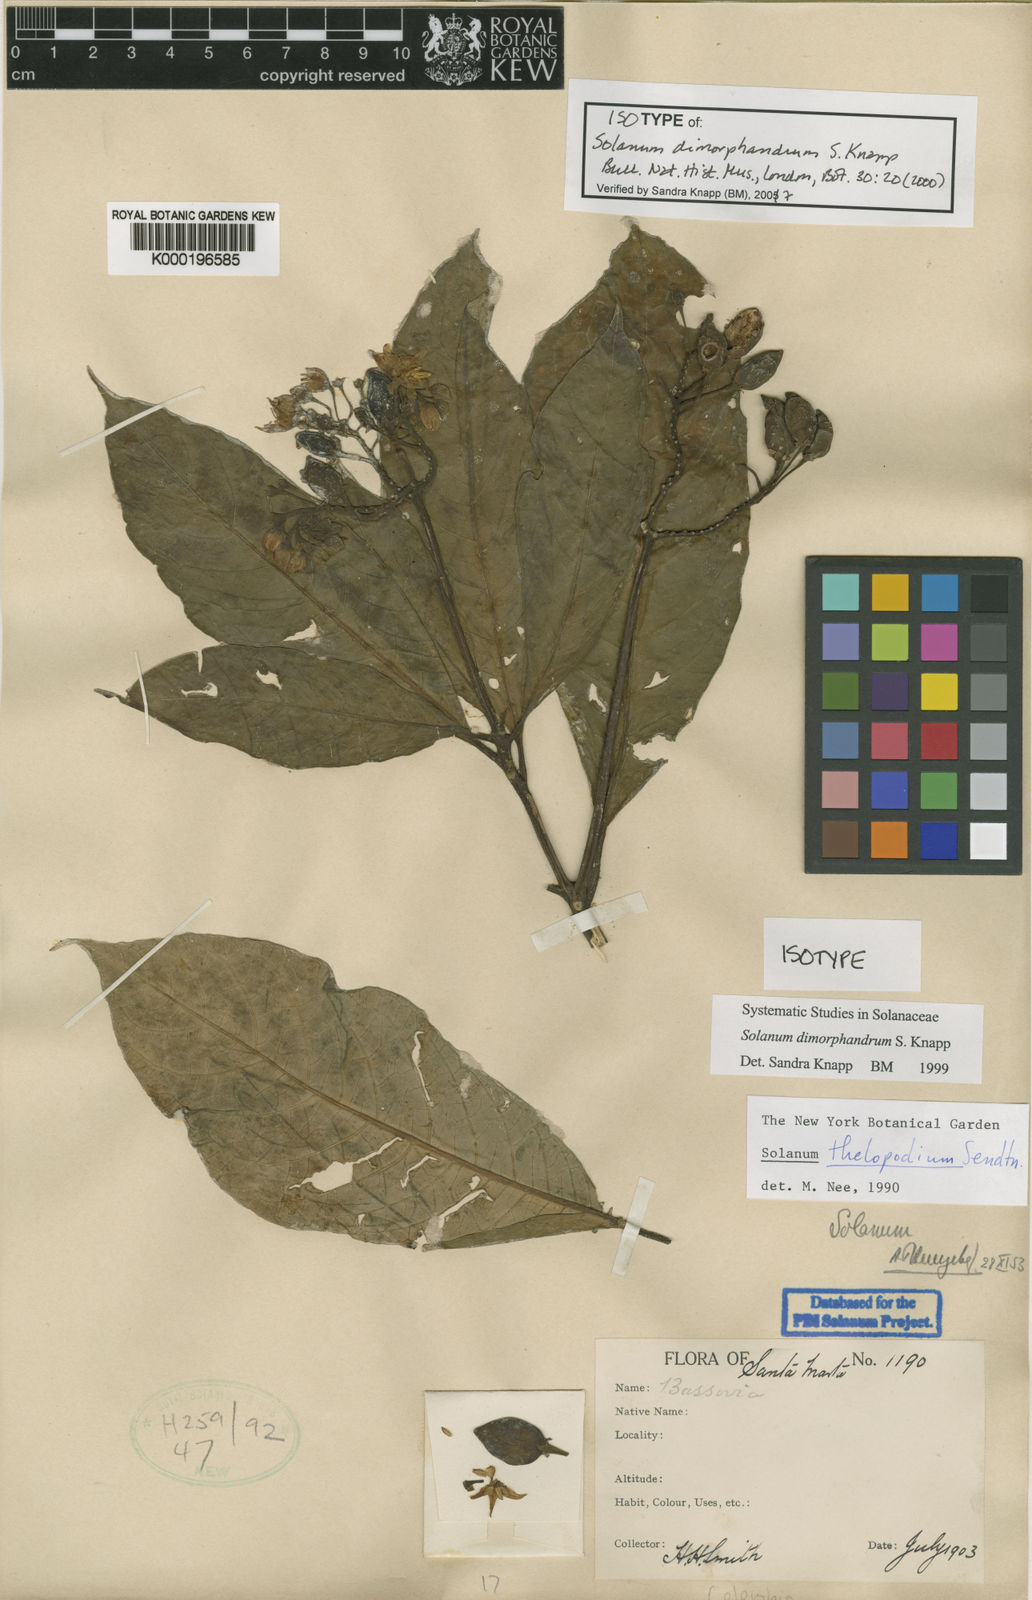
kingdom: Plantae
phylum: Tracheophyta
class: Magnoliopsida
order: Solanales
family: Solanaceae
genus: Solanum
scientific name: Solanum dimorphandrum
